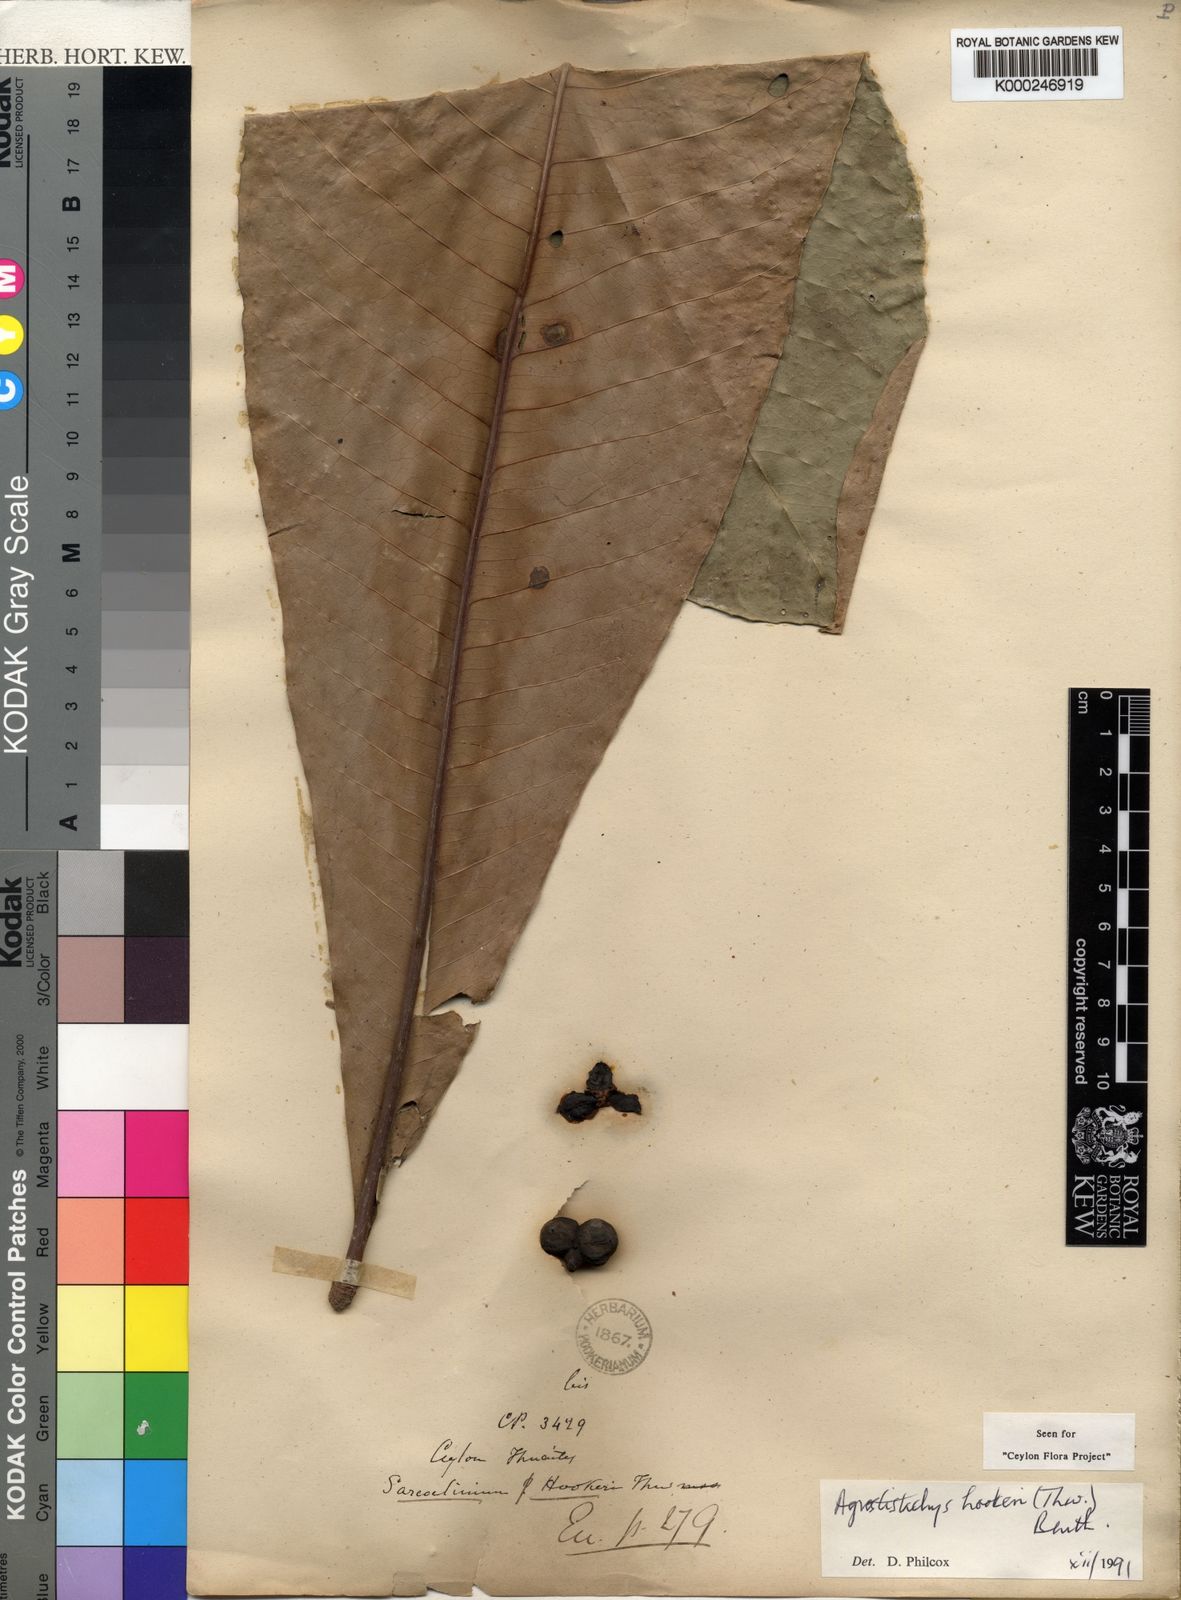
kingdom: Plantae
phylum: Tracheophyta
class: Magnoliopsida
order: Malpighiales
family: Euphorbiaceae
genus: Agrostistachys
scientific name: Agrostistachys
